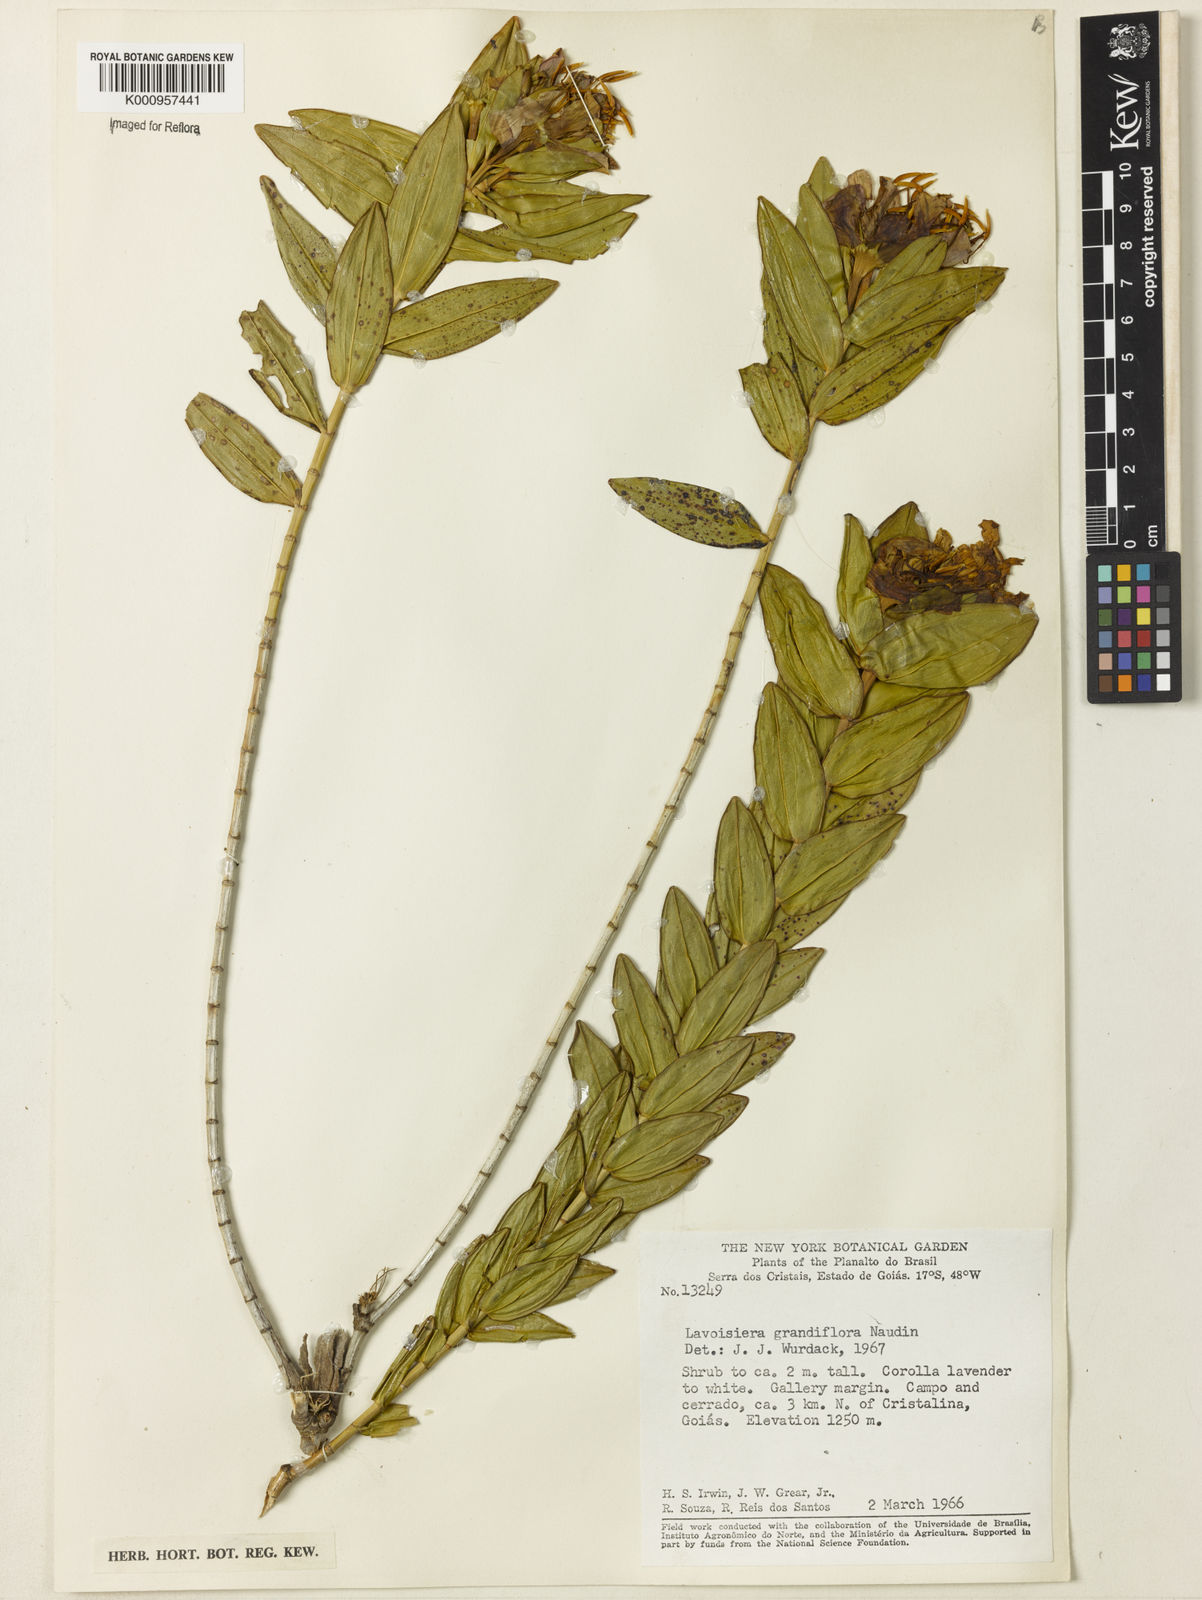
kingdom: Plantae
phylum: Tracheophyta
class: Magnoliopsida
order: Myrtales
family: Melastomataceae
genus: Microlicia
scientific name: Microlicia macrantha
